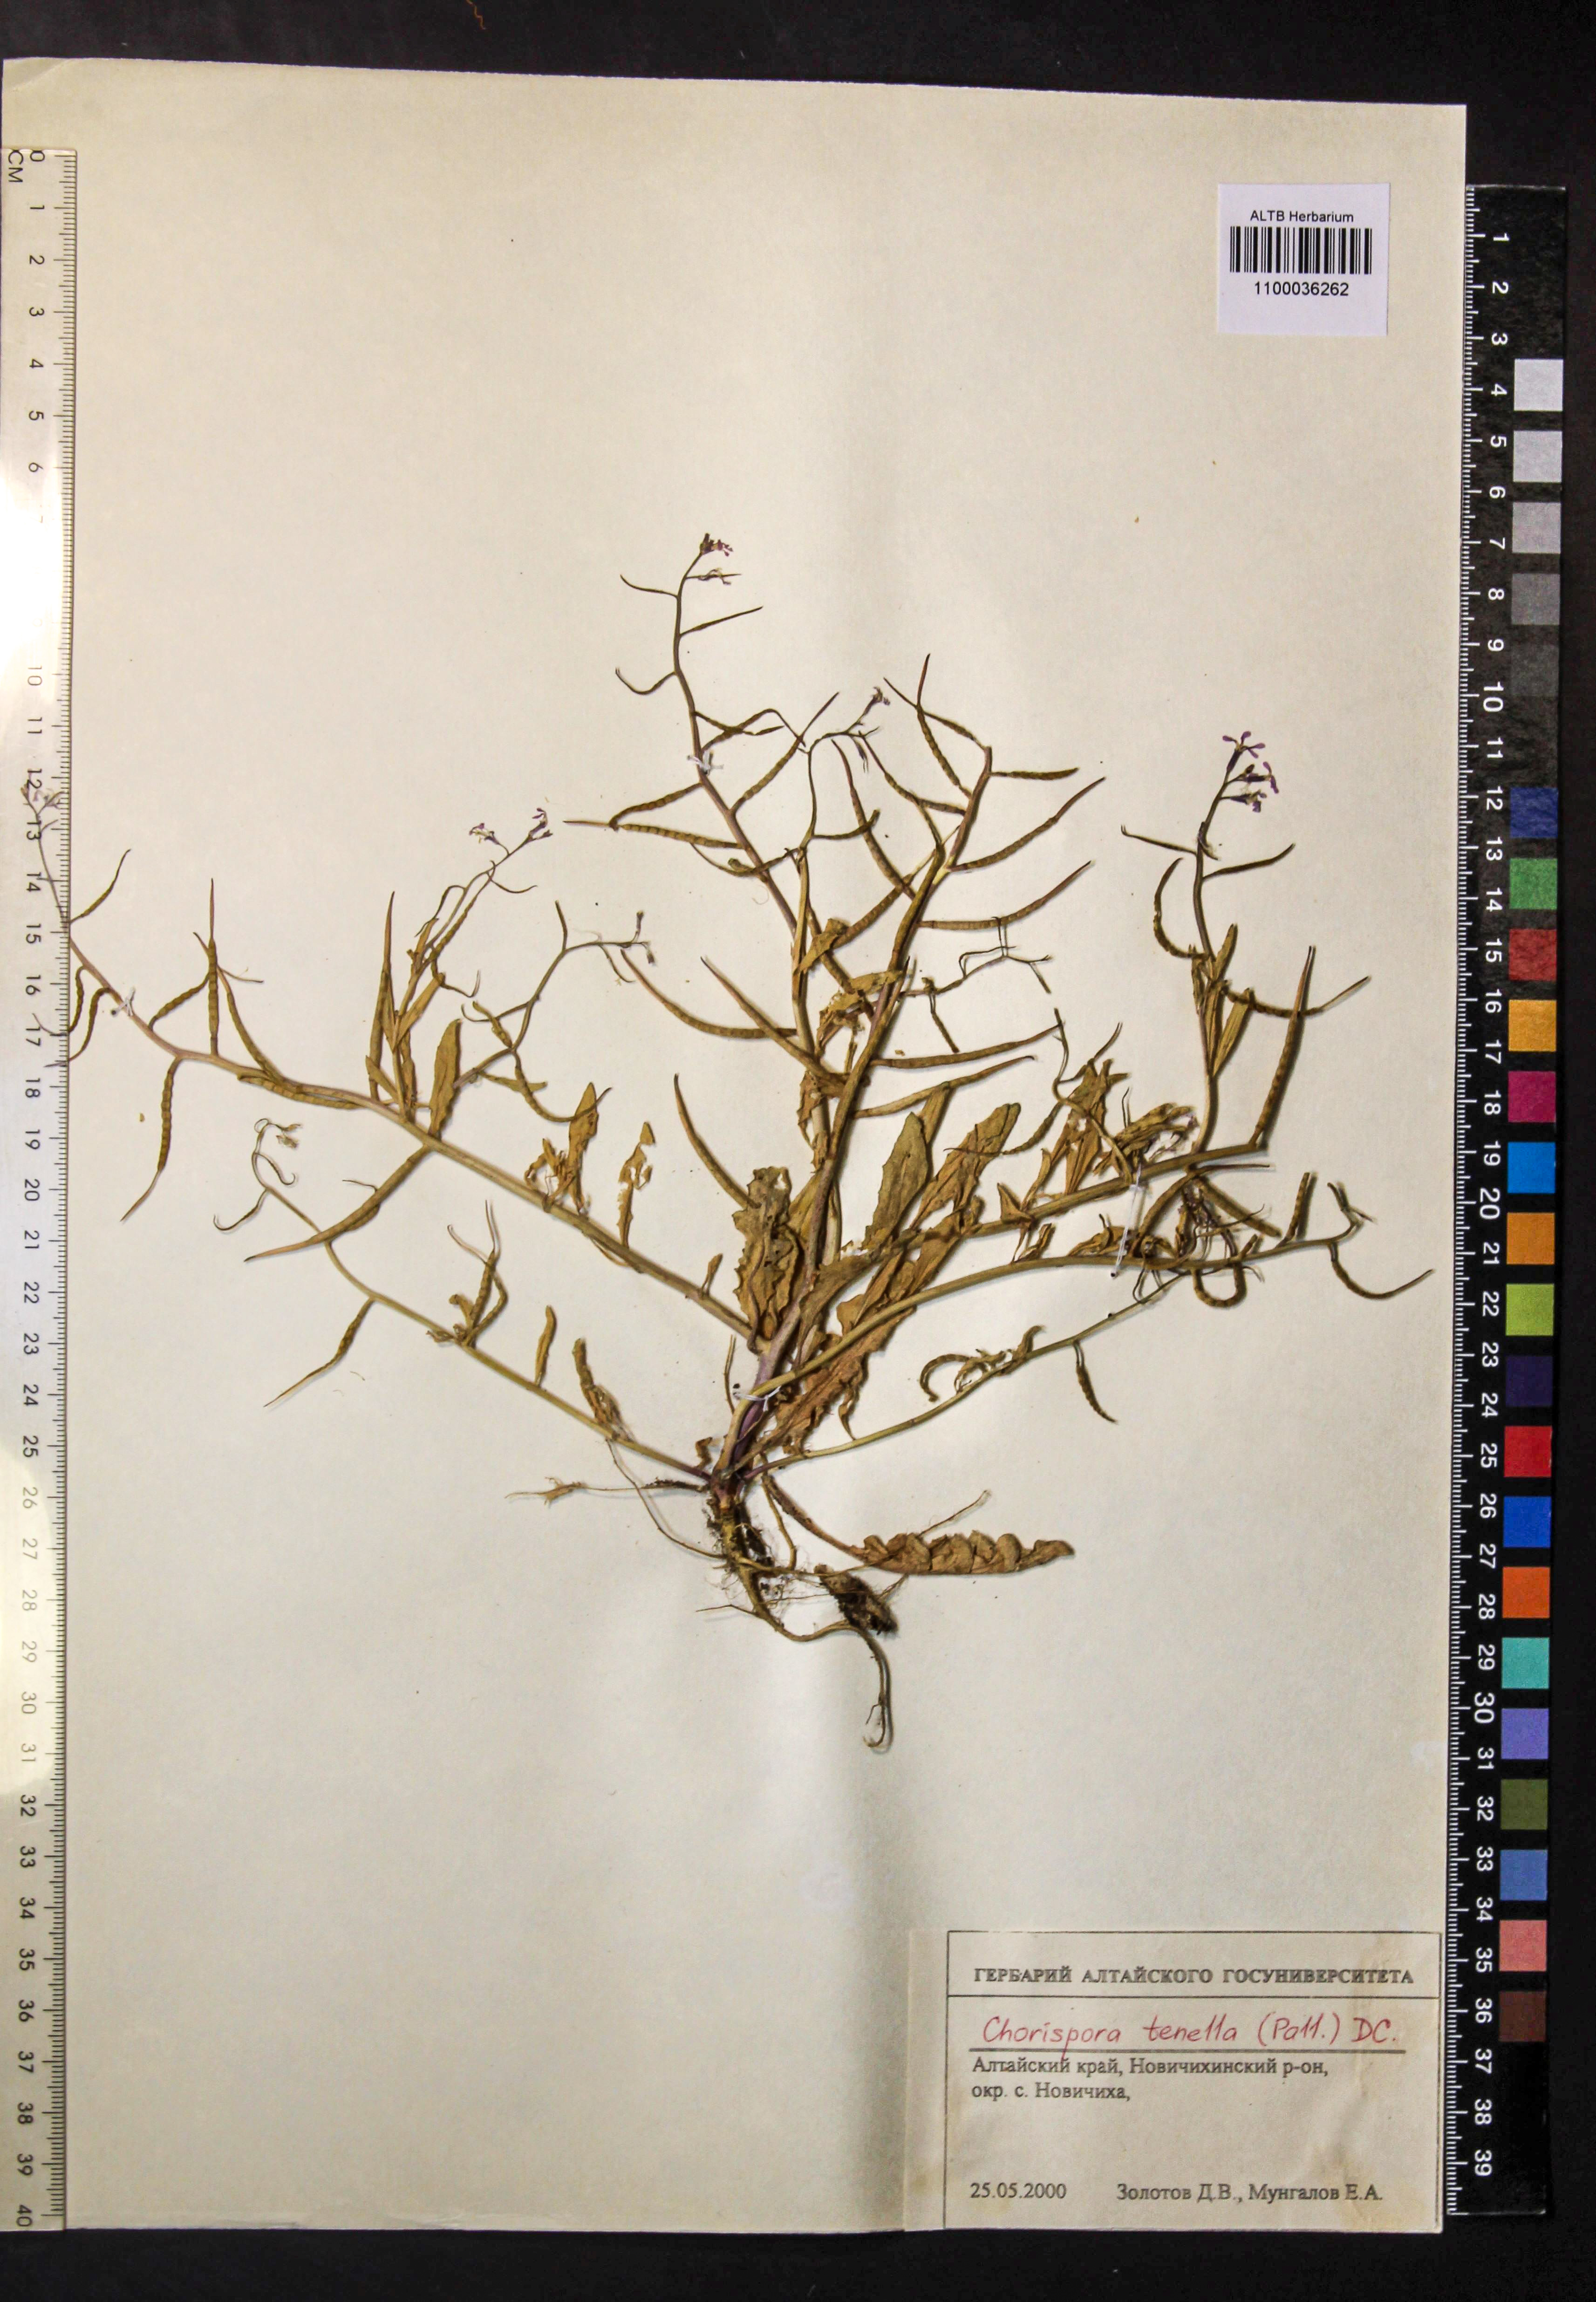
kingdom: Plantae
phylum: Tracheophyta
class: Magnoliopsida
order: Brassicales
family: Brassicaceae
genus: Chorispora
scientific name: Chorispora tenella
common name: Crossflower
